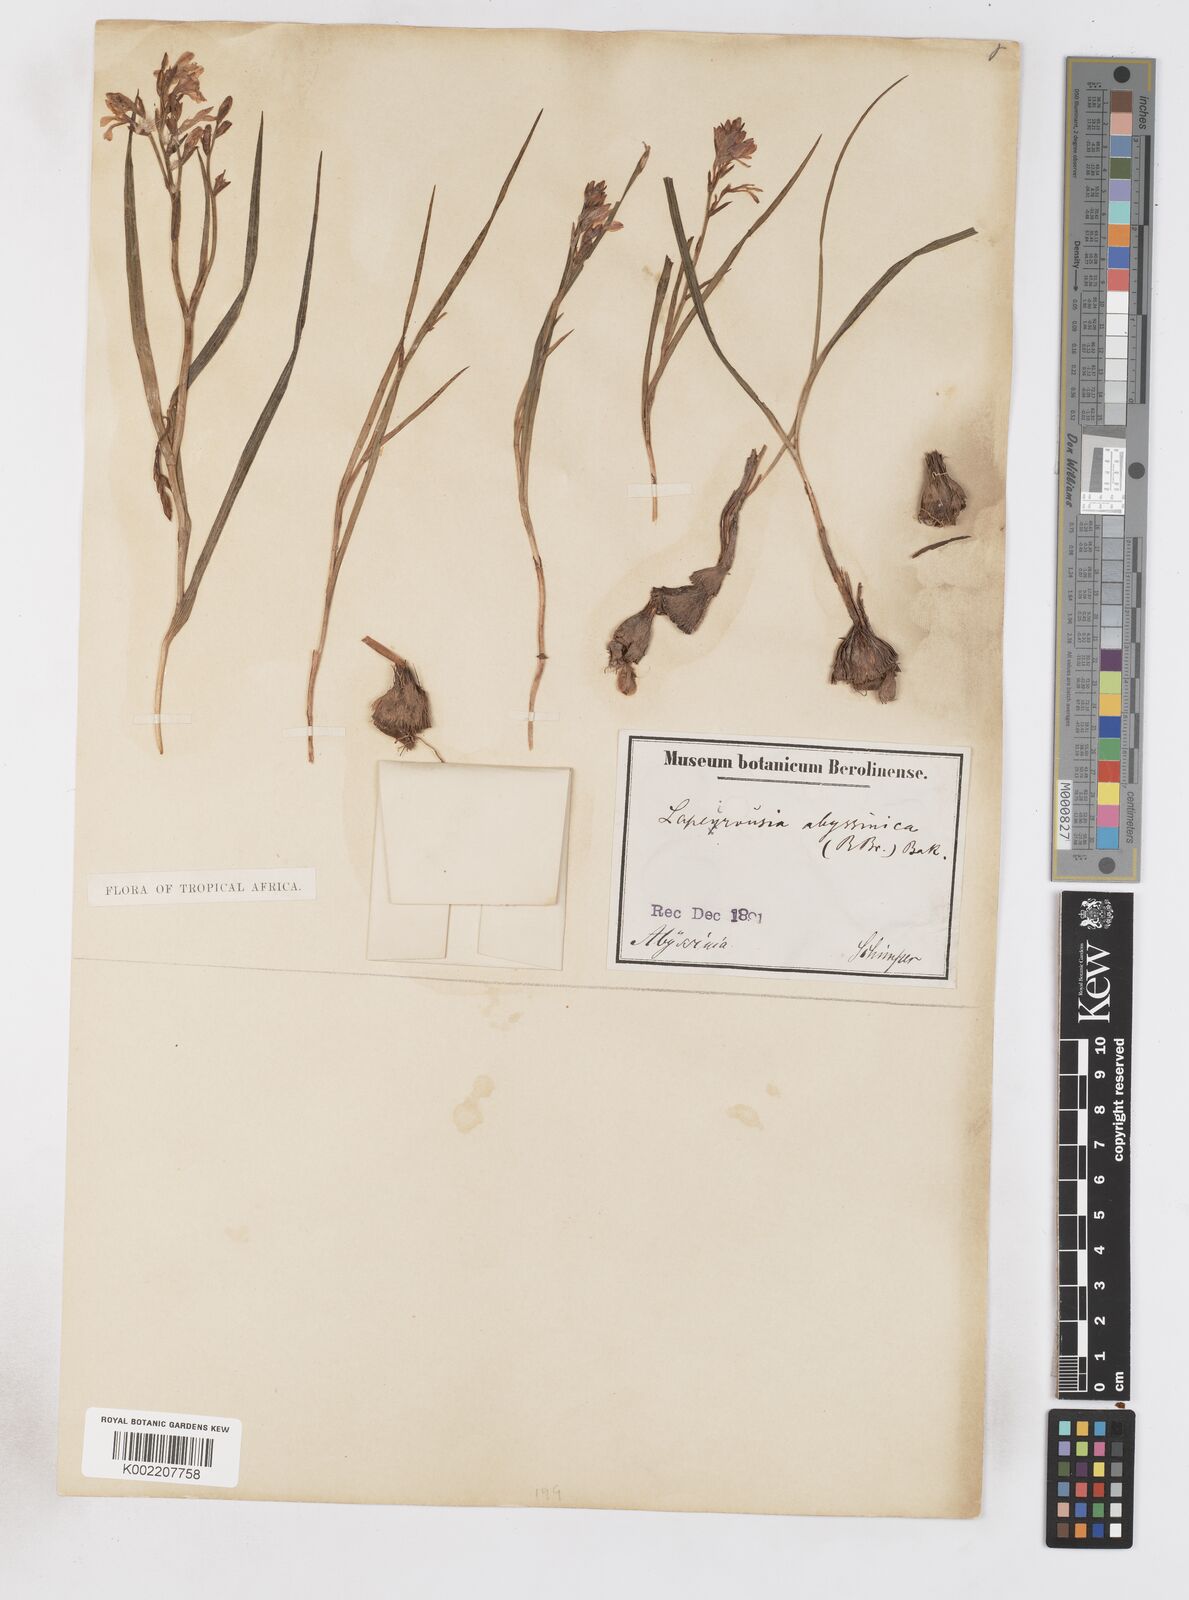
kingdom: Plantae
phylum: Tracheophyta
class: Liliopsida
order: Asparagales
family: Iridaceae
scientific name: Iridaceae
